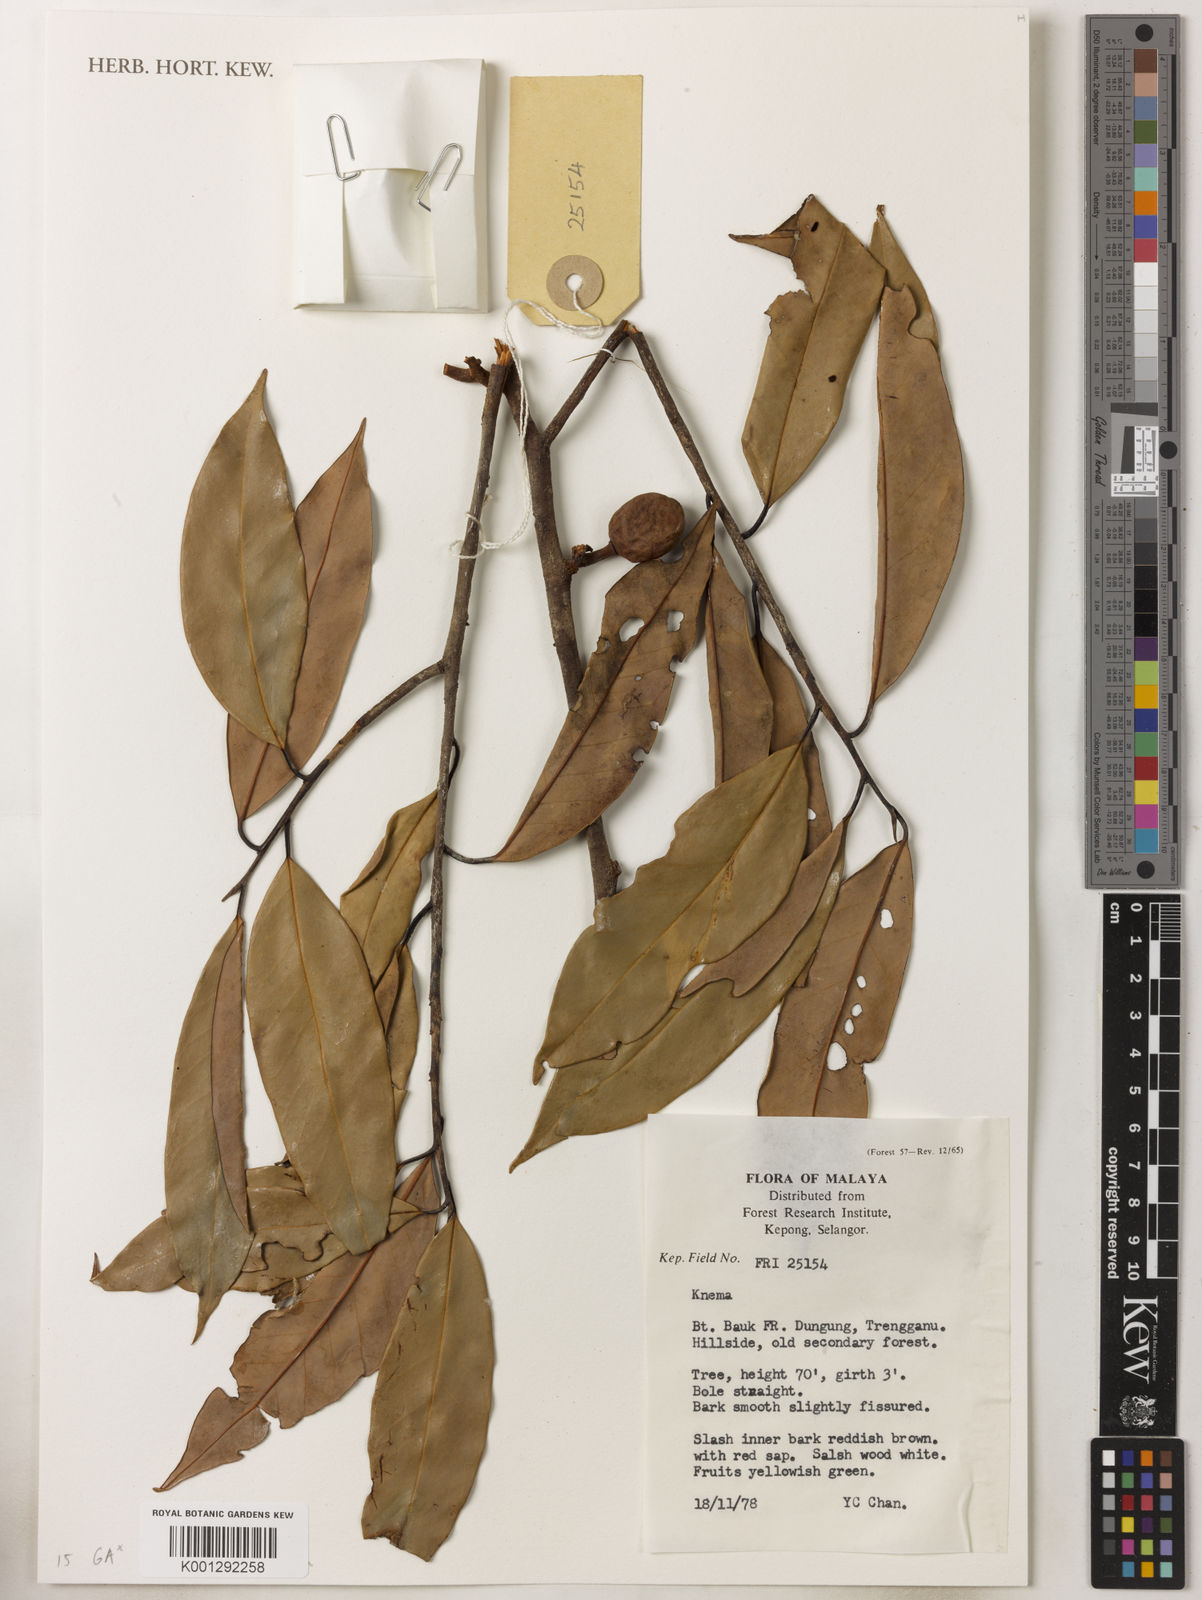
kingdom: Plantae
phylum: Tracheophyta
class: Magnoliopsida
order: Magnoliales
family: Myristicaceae
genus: Knema
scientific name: Knema
